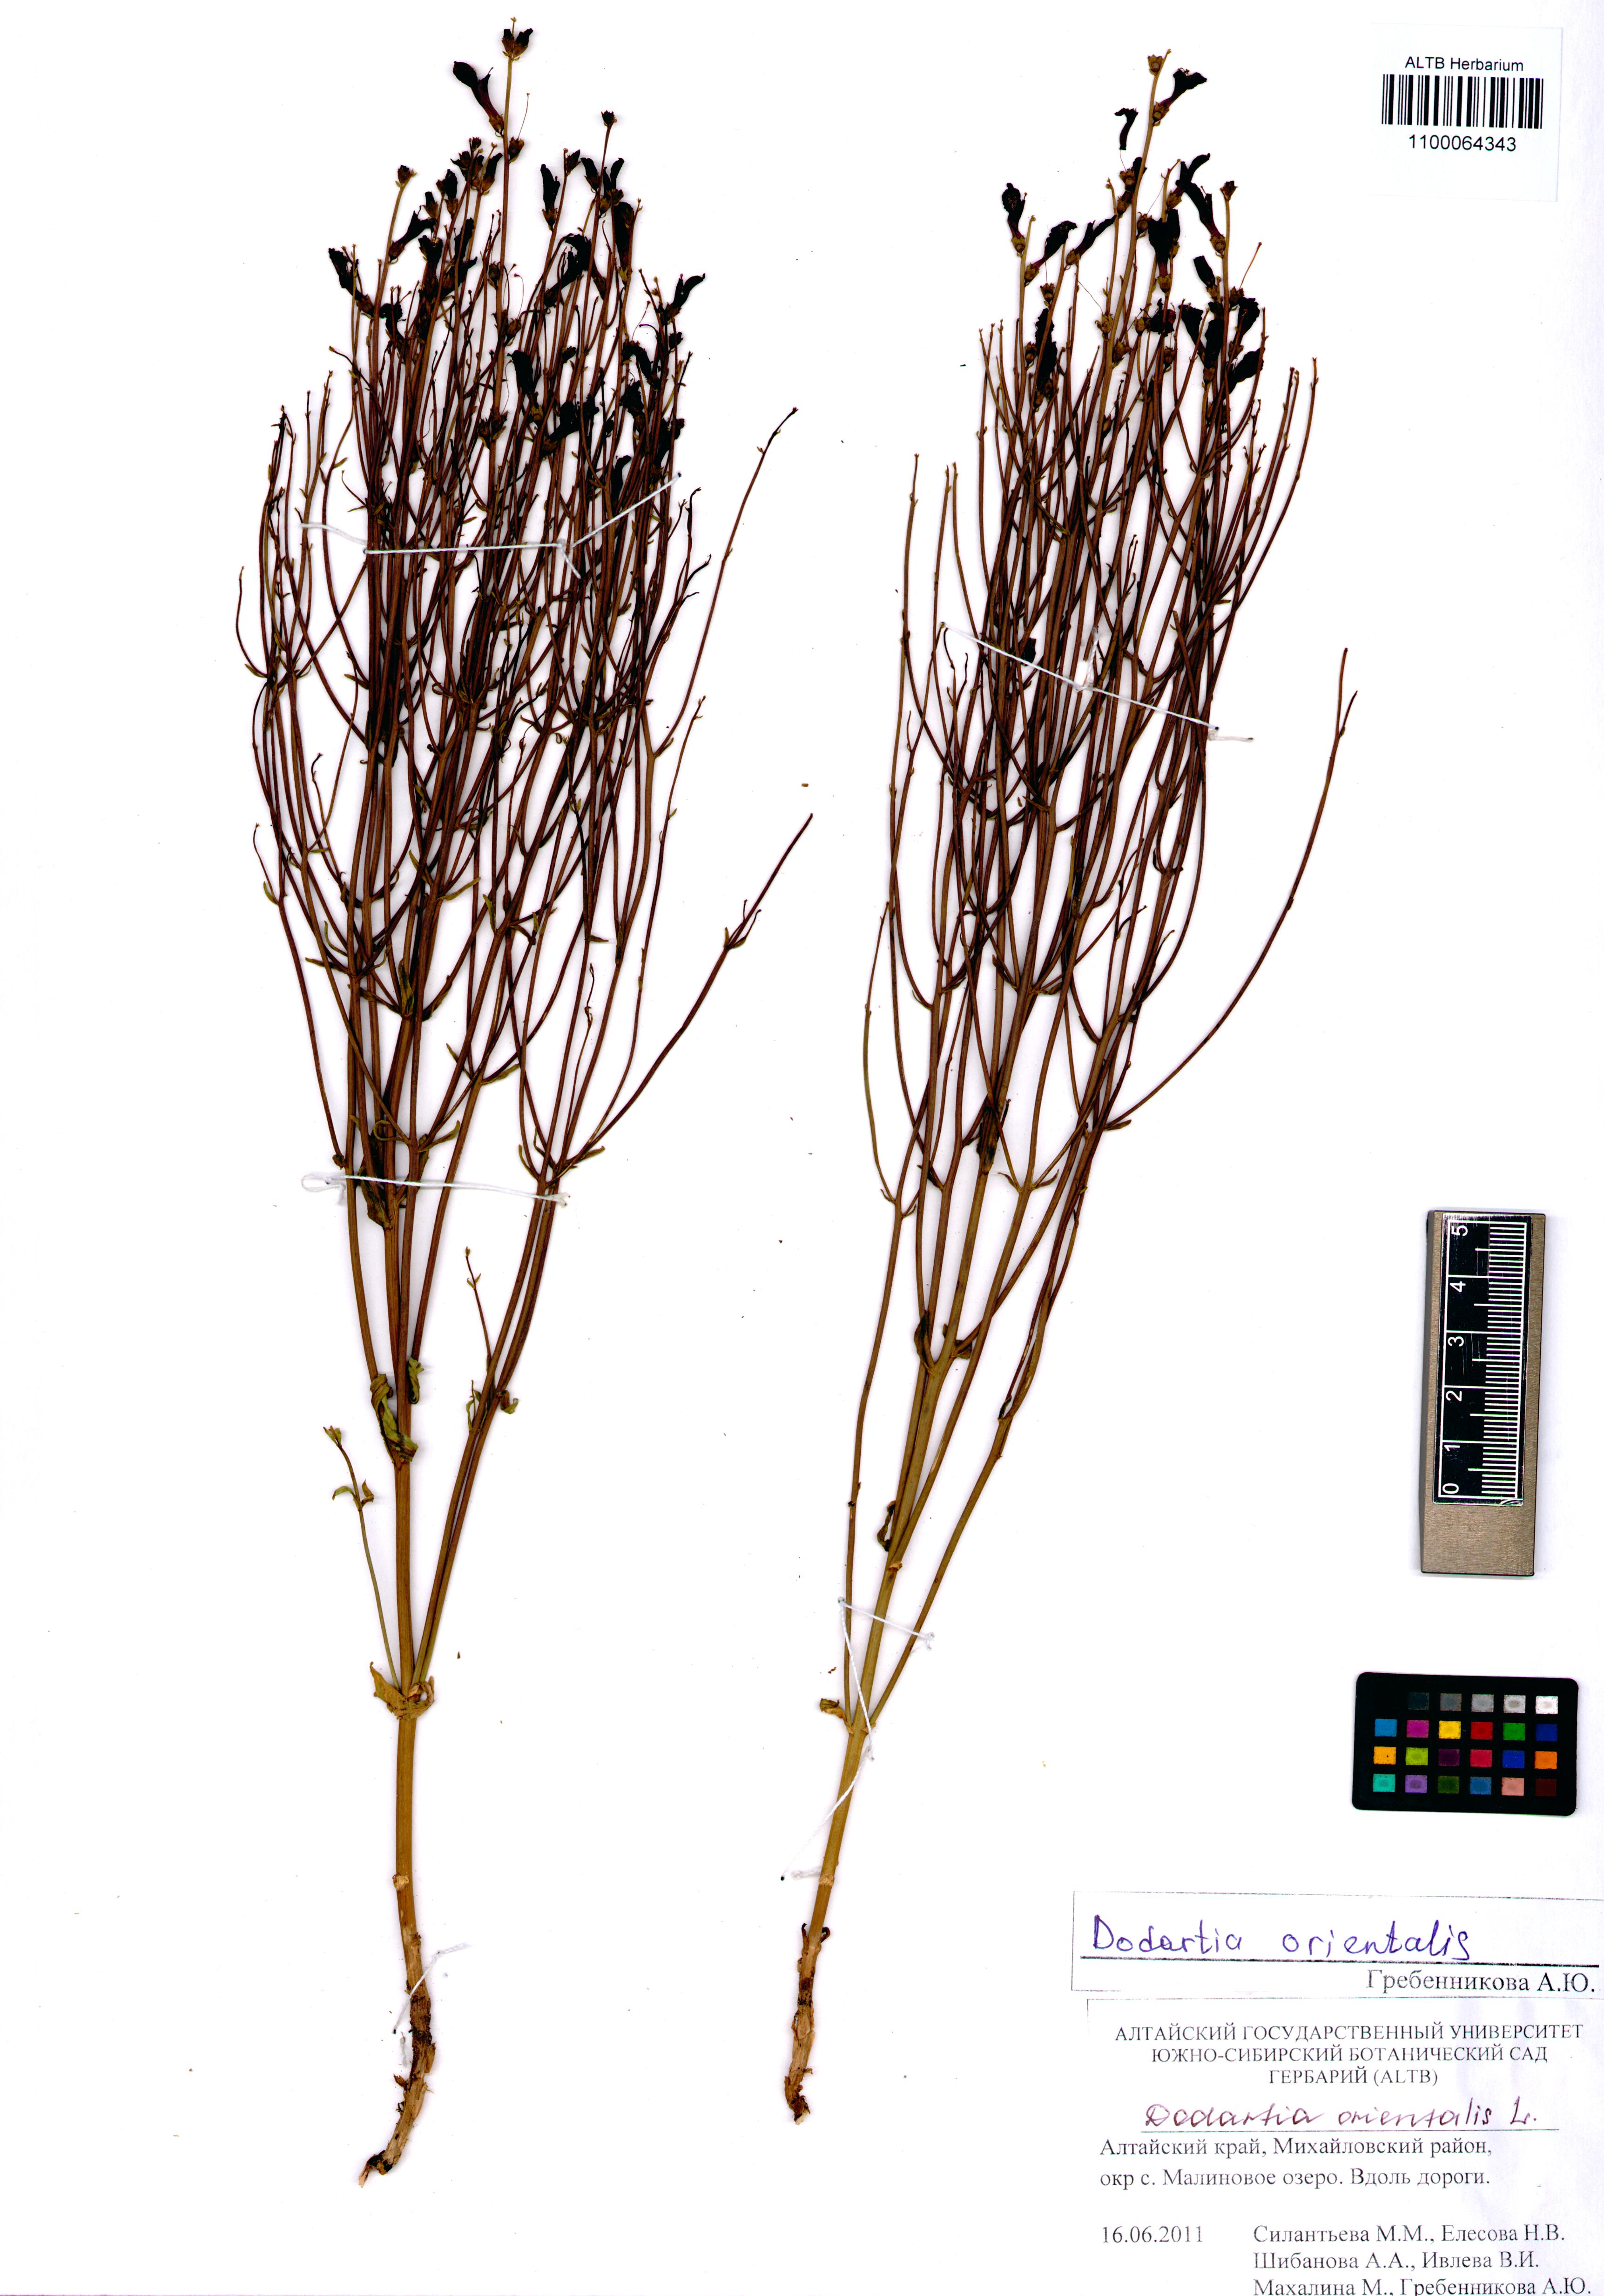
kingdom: Plantae
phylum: Tracheophyta
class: Magnoliopsida
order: Lamiales
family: Mazaceae
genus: Dodartia
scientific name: Dodartia orientalis
